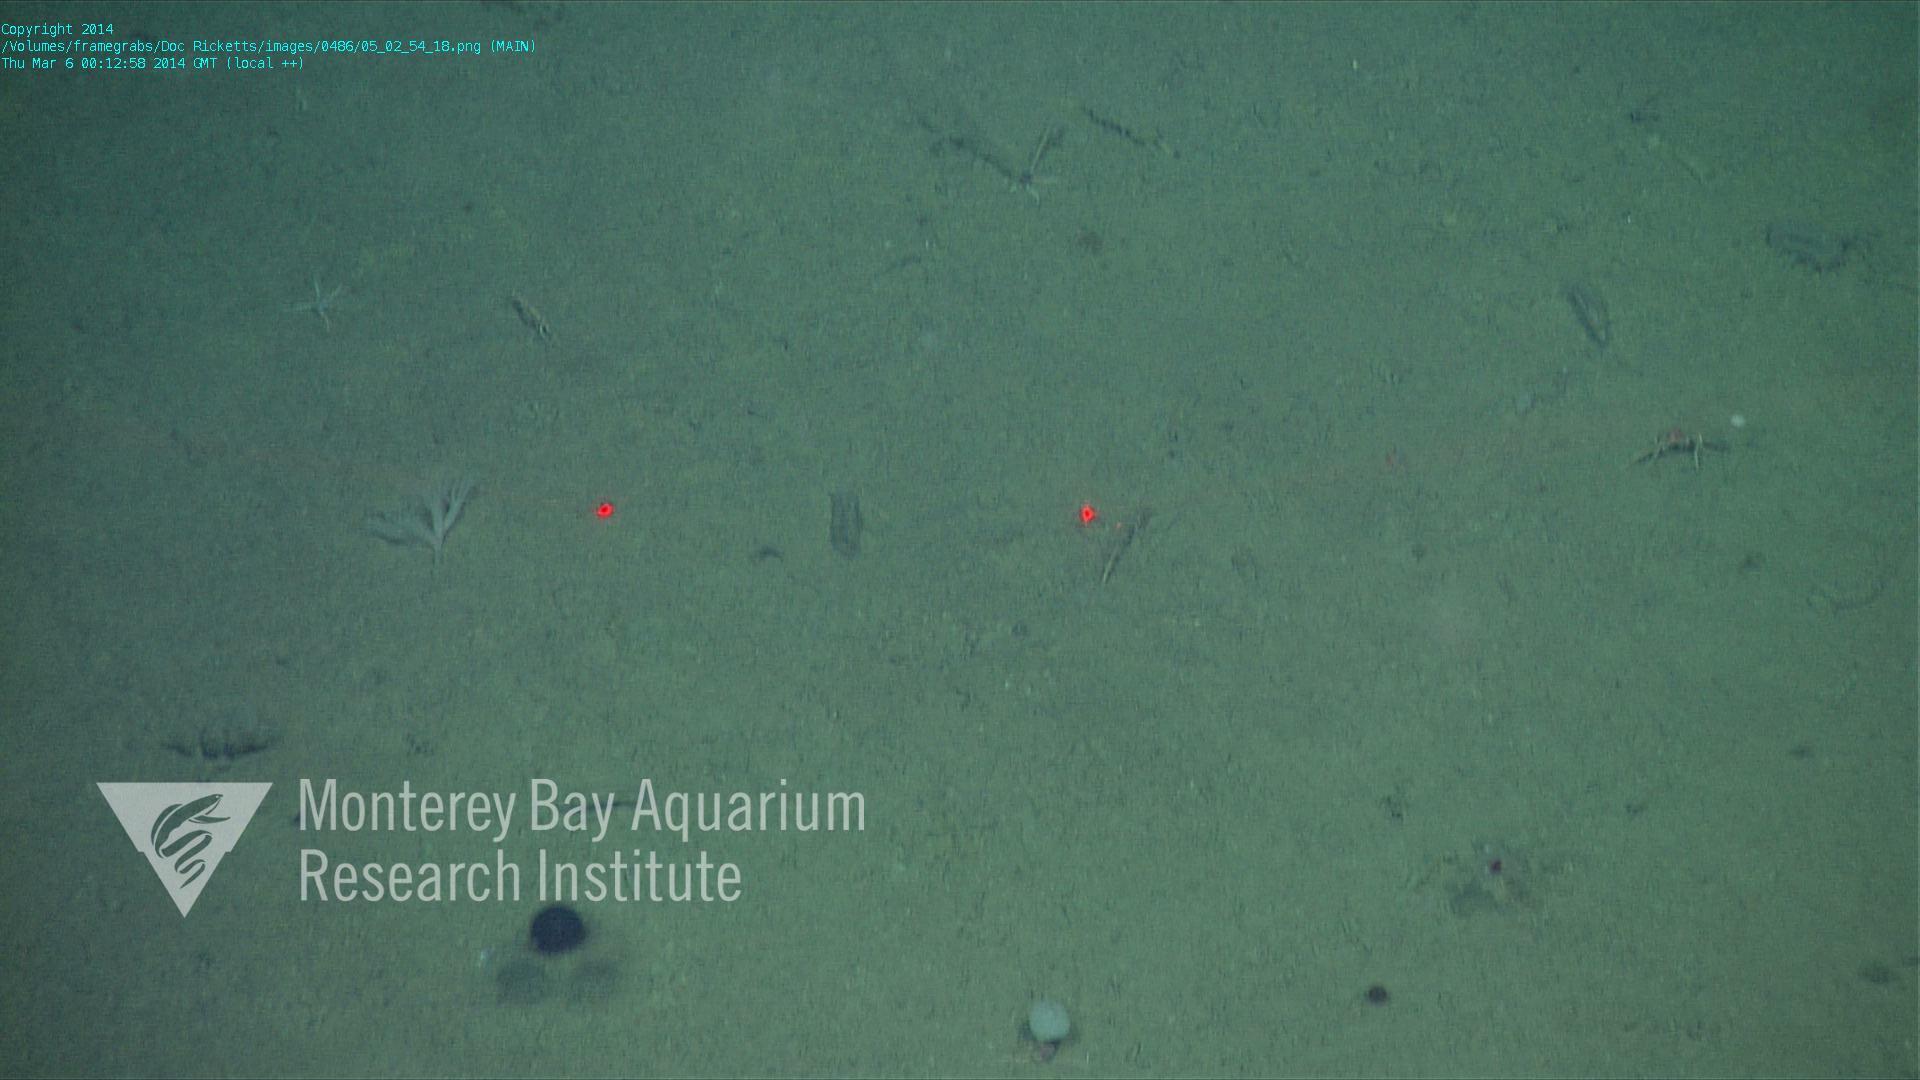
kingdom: Animalia
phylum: Cnidaria
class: Anthozoa
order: Scleralcyonacea
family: Umbellulidae
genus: Umbellula
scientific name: Umbellula
